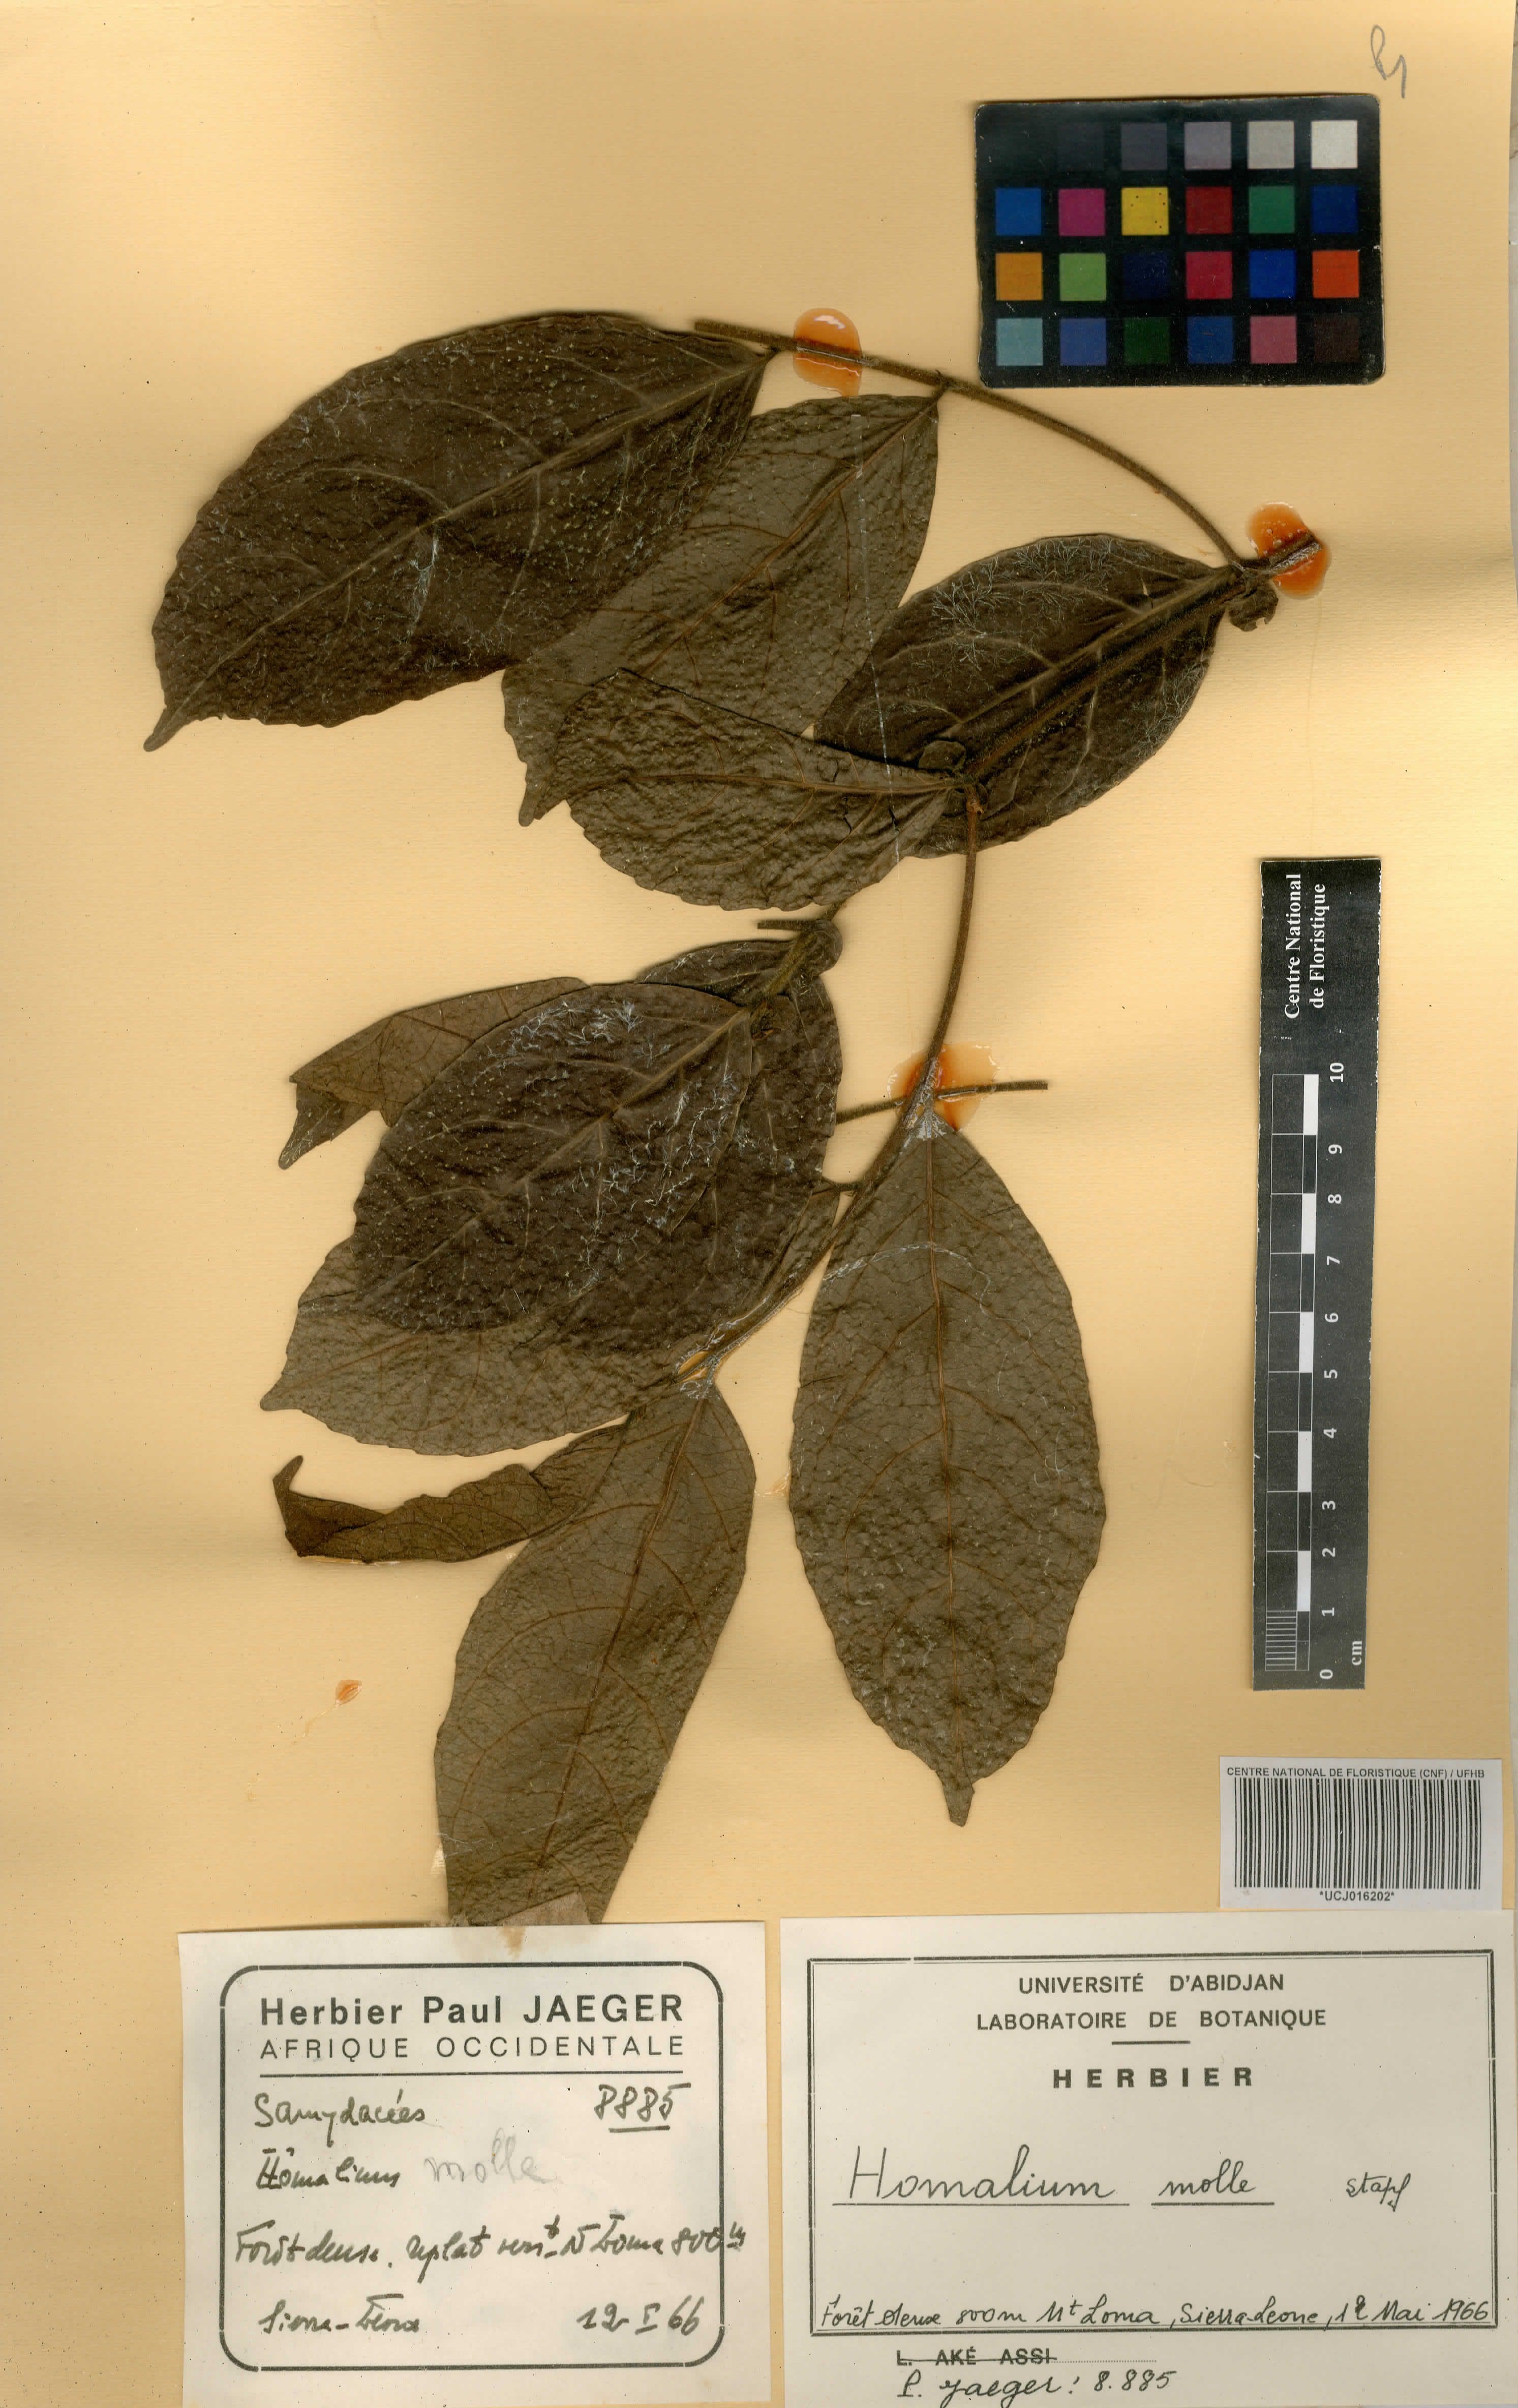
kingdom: Plantae
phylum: Tracheophyta
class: Magnoliopsida
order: Malpighiales
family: Salicaceae
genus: Homalium
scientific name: Homalium africanum
